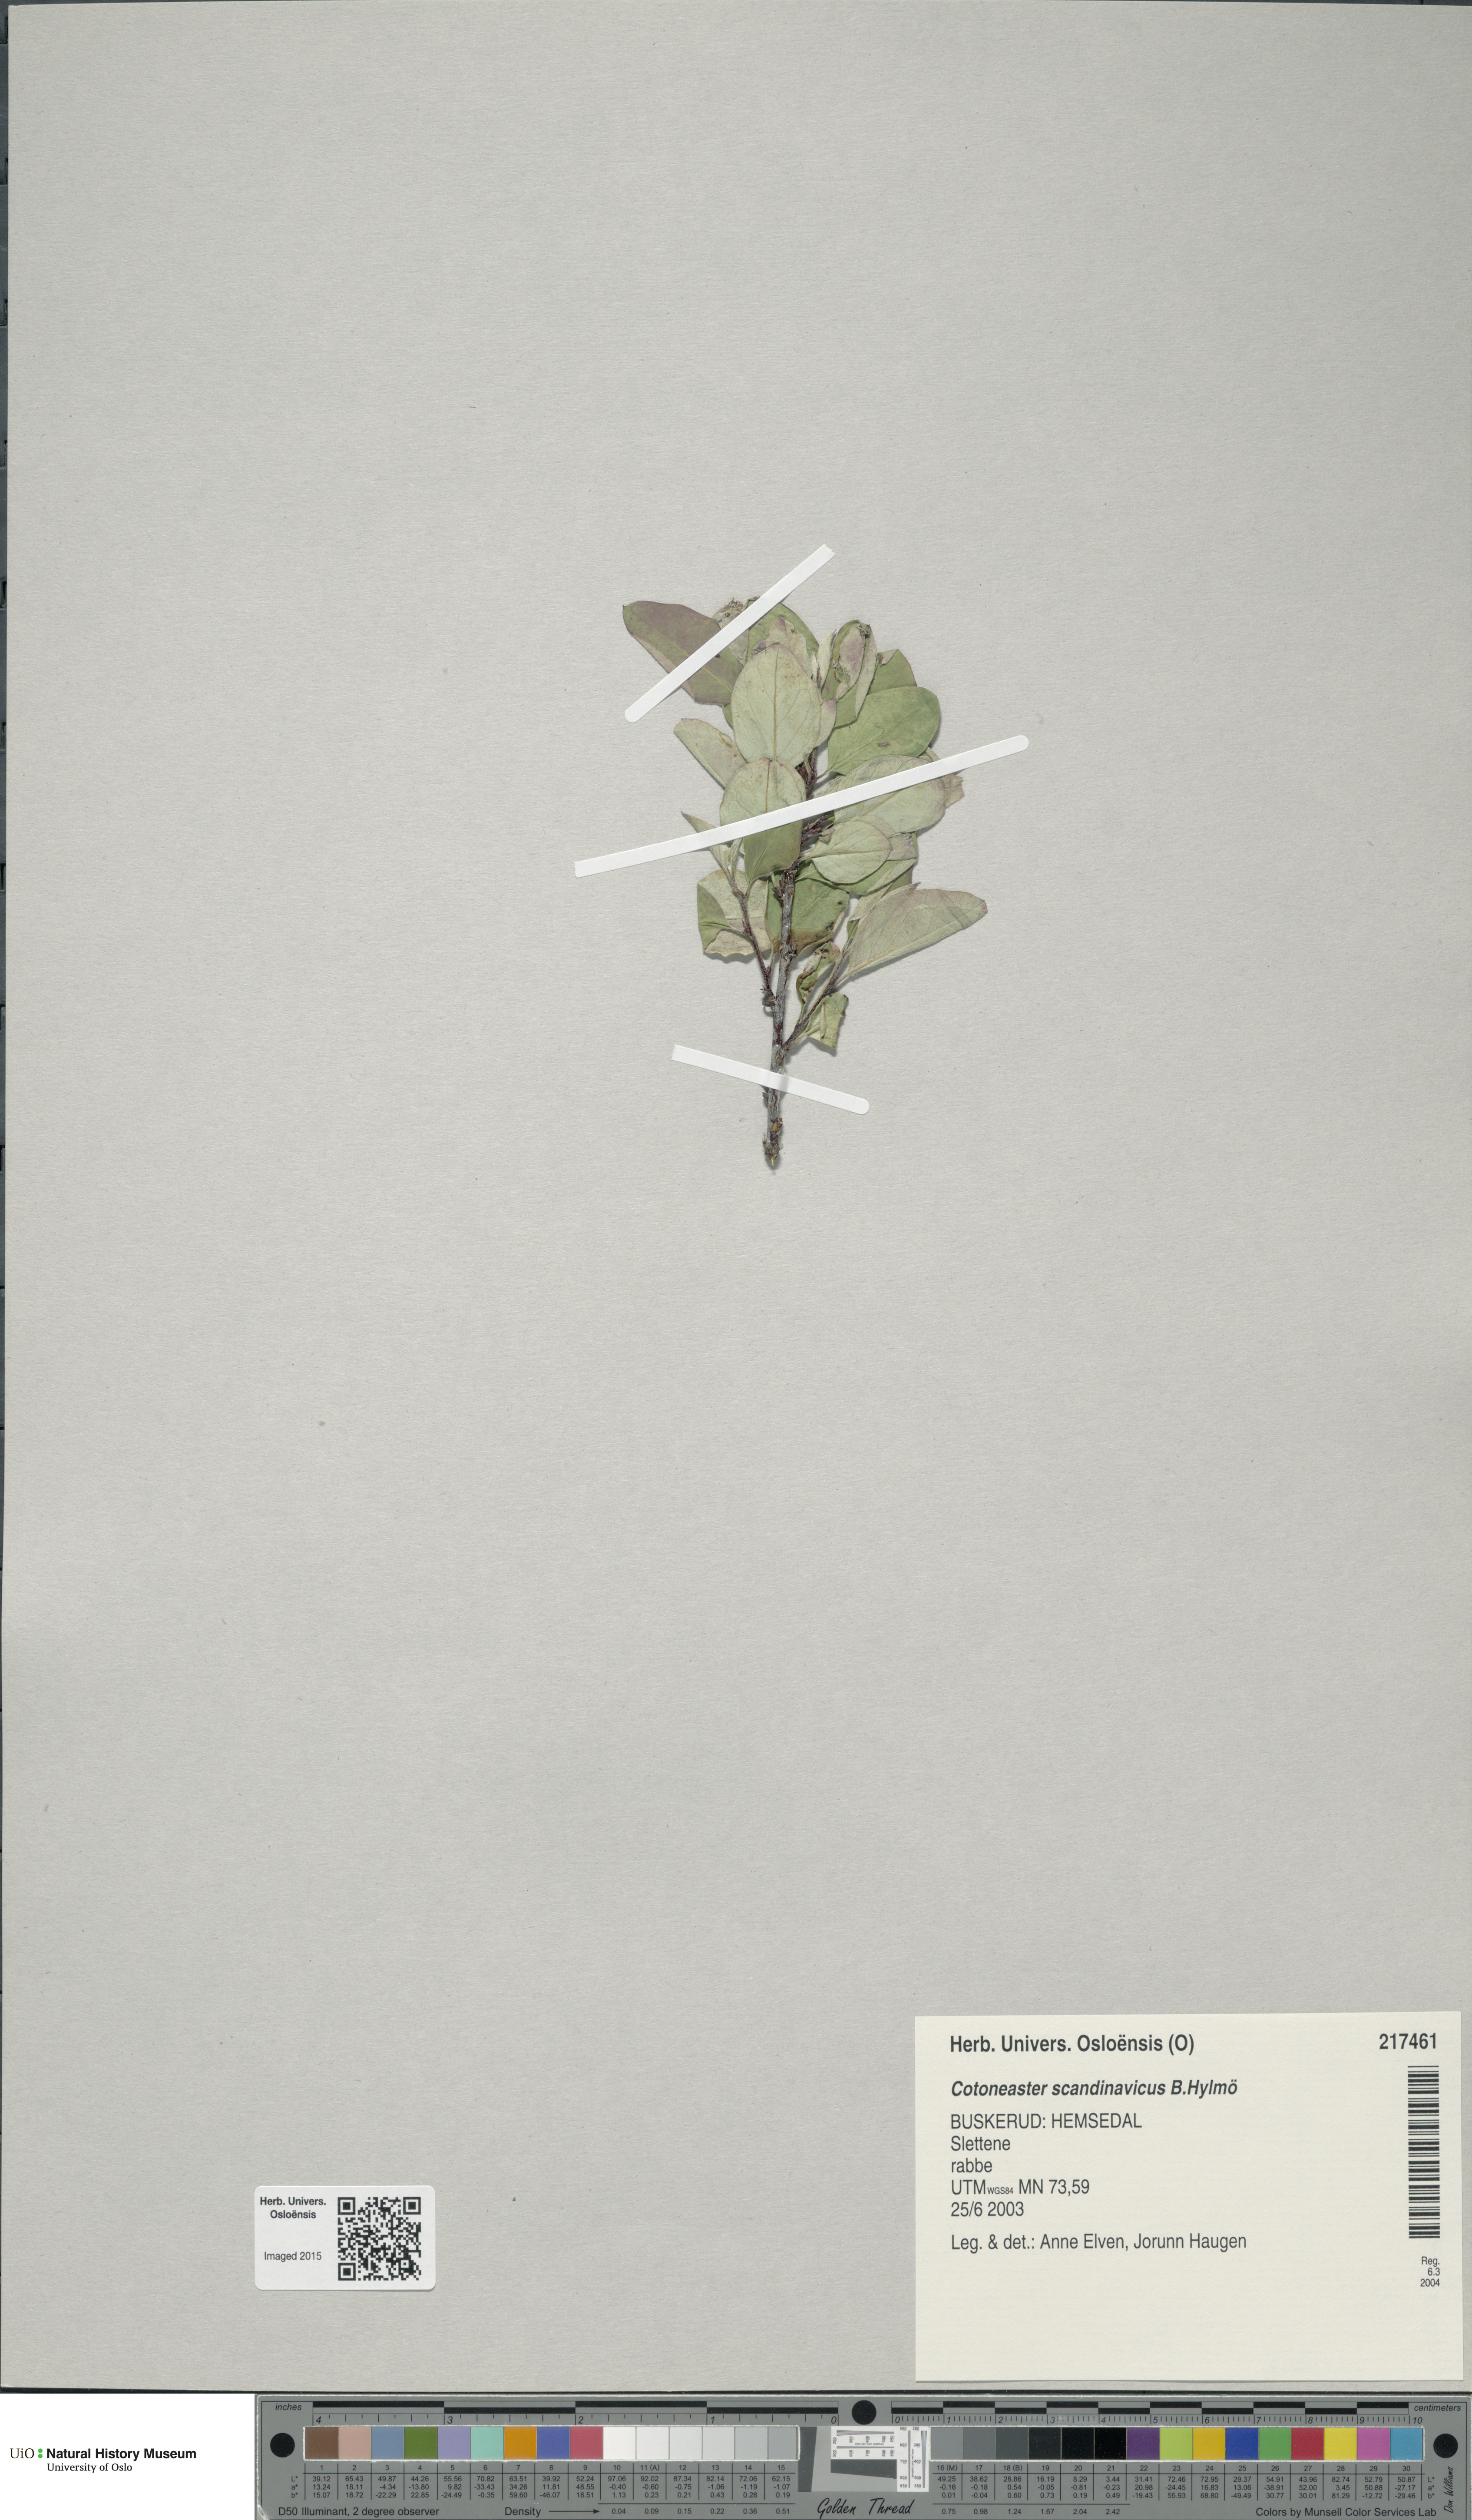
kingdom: Plantae
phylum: Tracheophyta
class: Magnoliopsida
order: Rosales
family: Rosaceae
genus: Cotoneaster
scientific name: Cotoneaster integerrimus
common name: Wild cotoneaster
